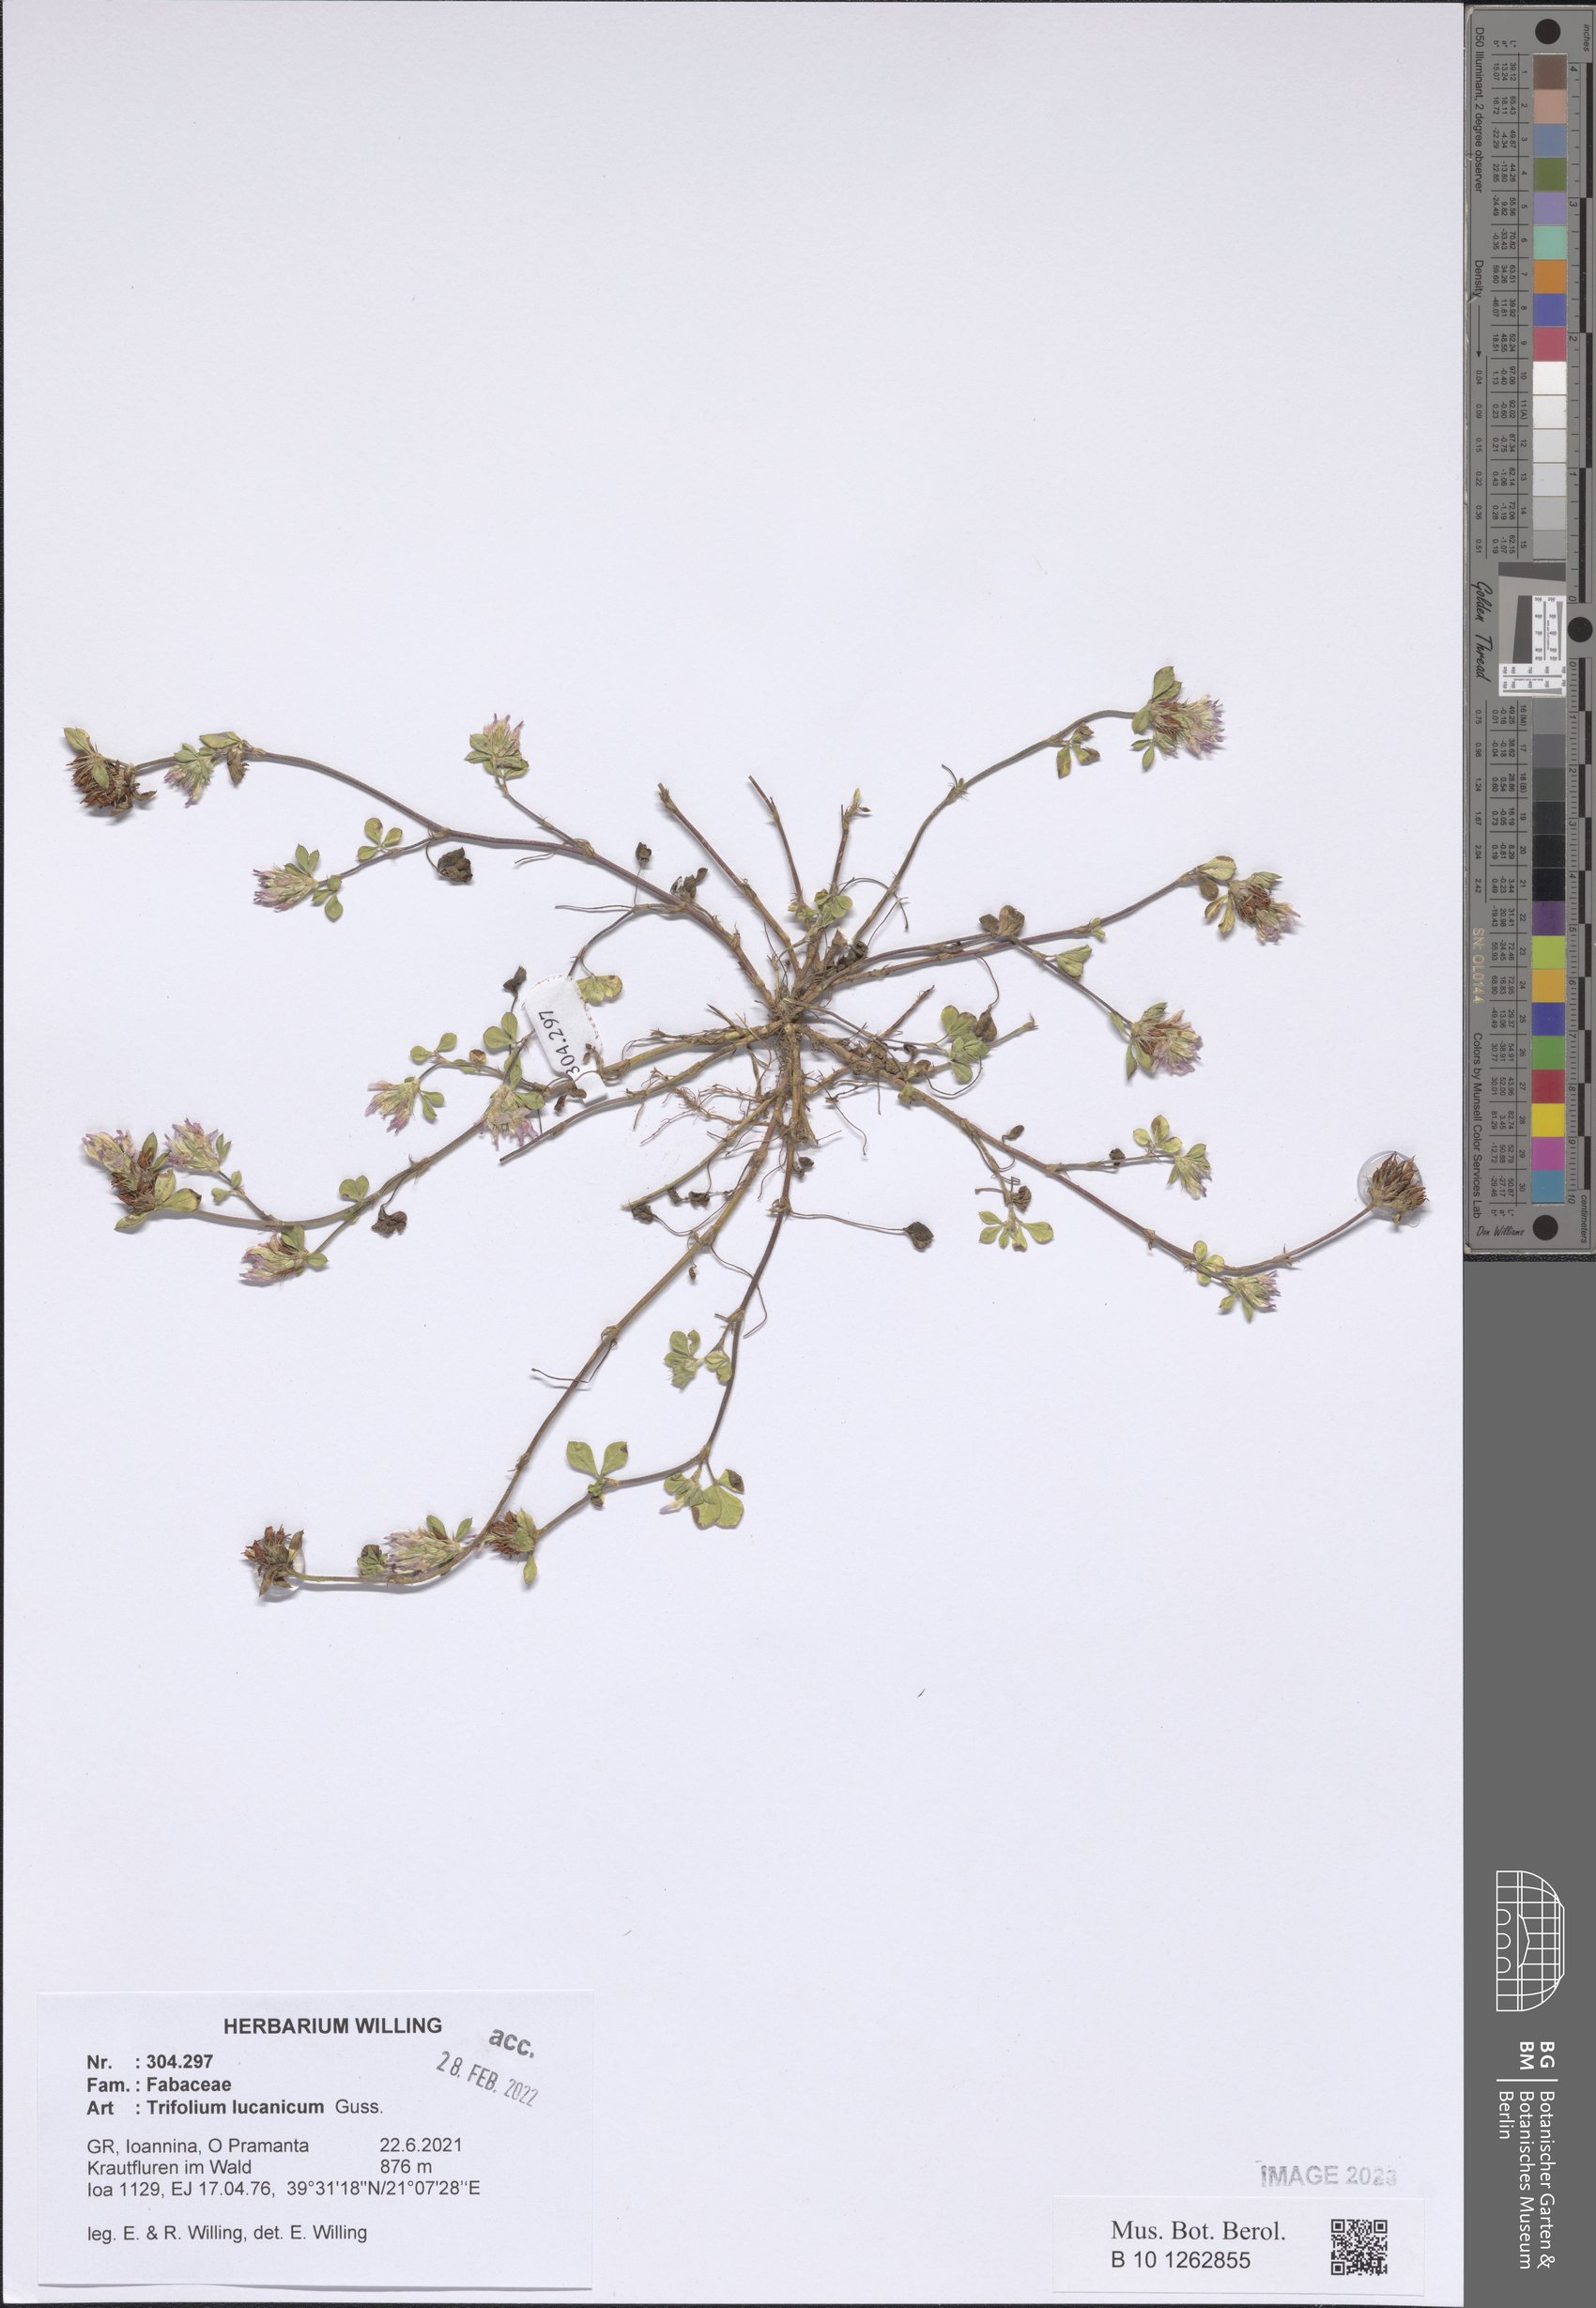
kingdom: Plantae
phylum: Tracheophyta
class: Magnoliopsida
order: Fabales
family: Fabaceae
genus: Trifolium
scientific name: Trifolium lucanicum
